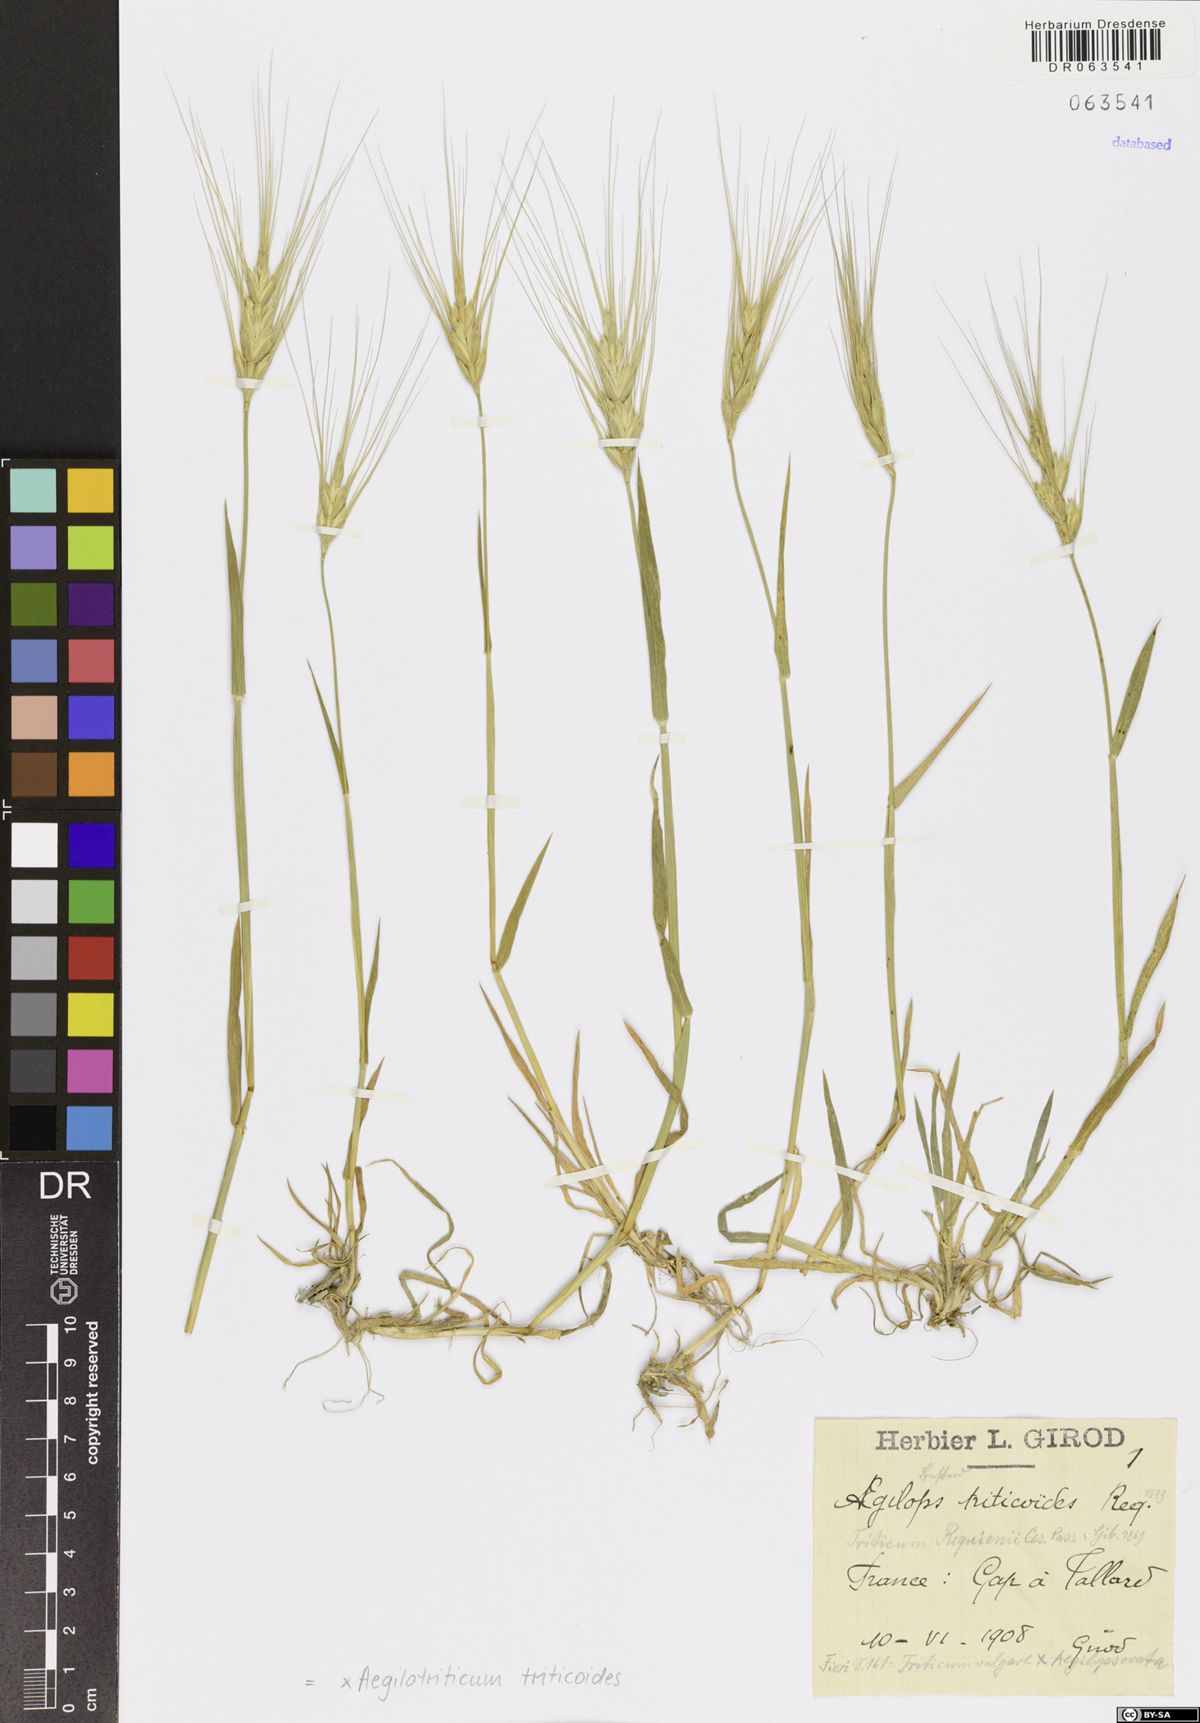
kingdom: Plantae
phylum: Tracheophyta
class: Liliopsida
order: Poales
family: Poaceae
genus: Aegilotriticum
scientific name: Aegilotriticum triticoides
